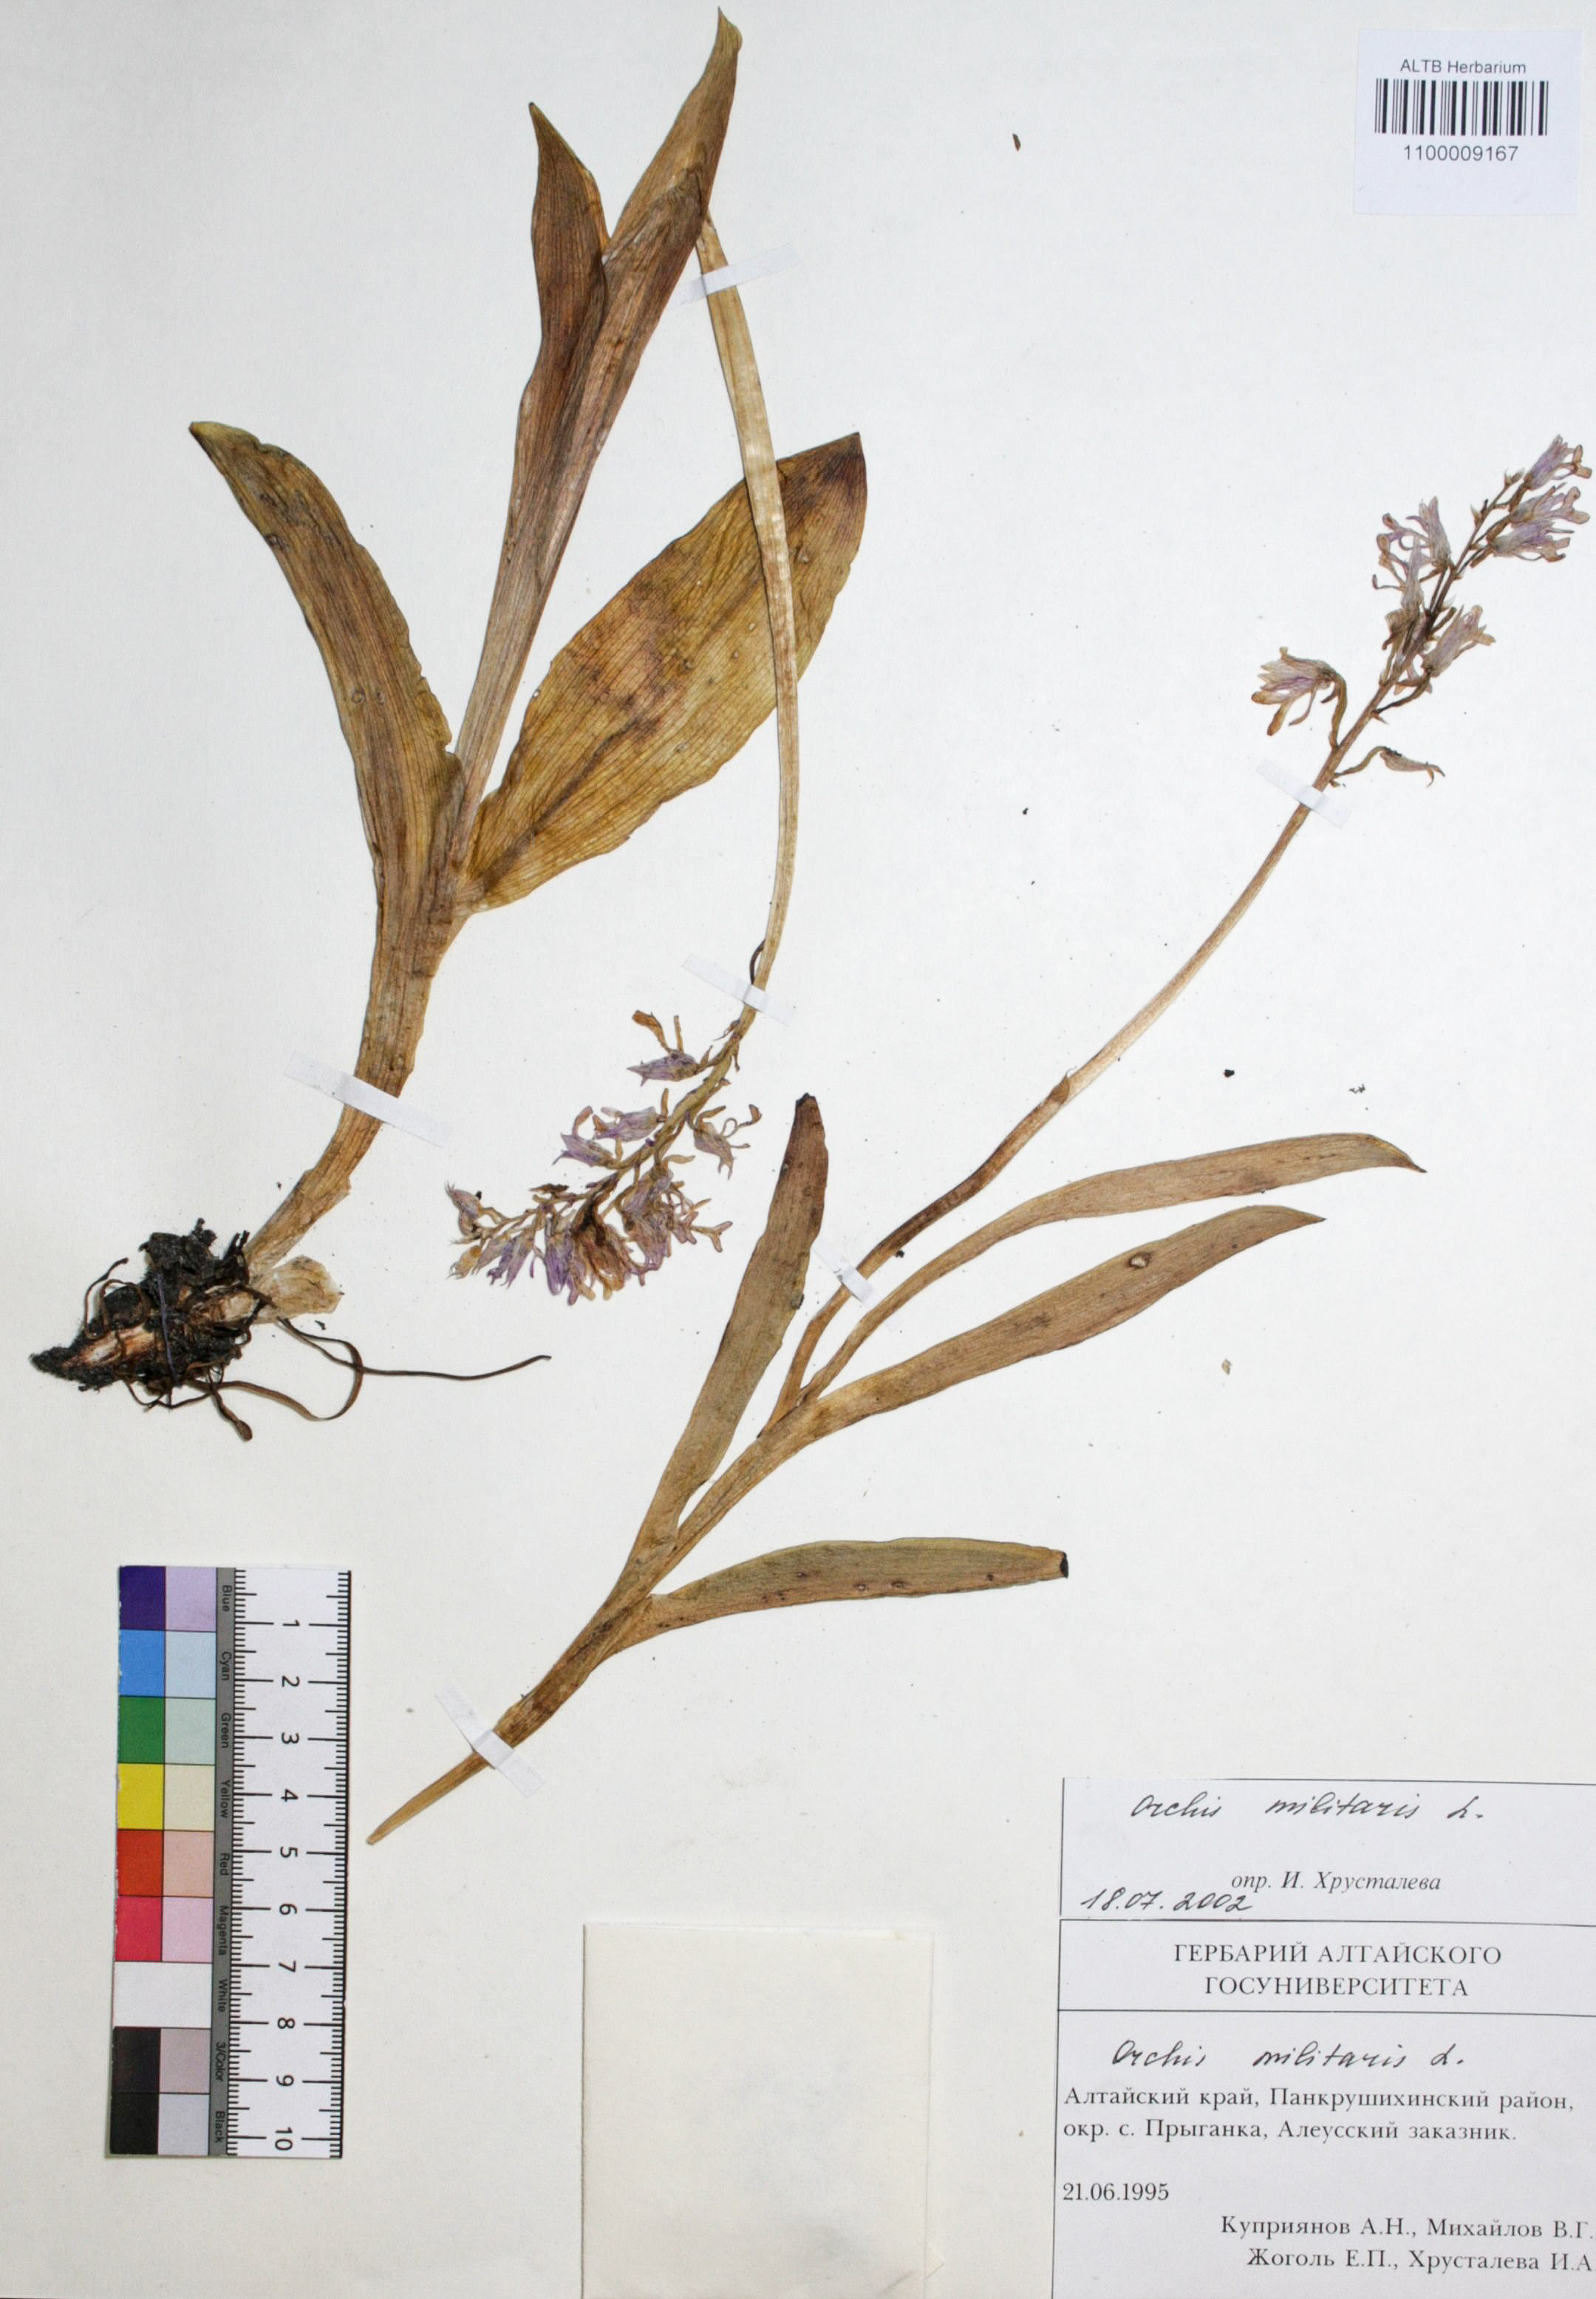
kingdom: Plantae
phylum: Tracheophyta
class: Liliopsida
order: Asparagales
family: Orchidaceae
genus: Orchis
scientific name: Orchis militaris
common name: Military orchid
